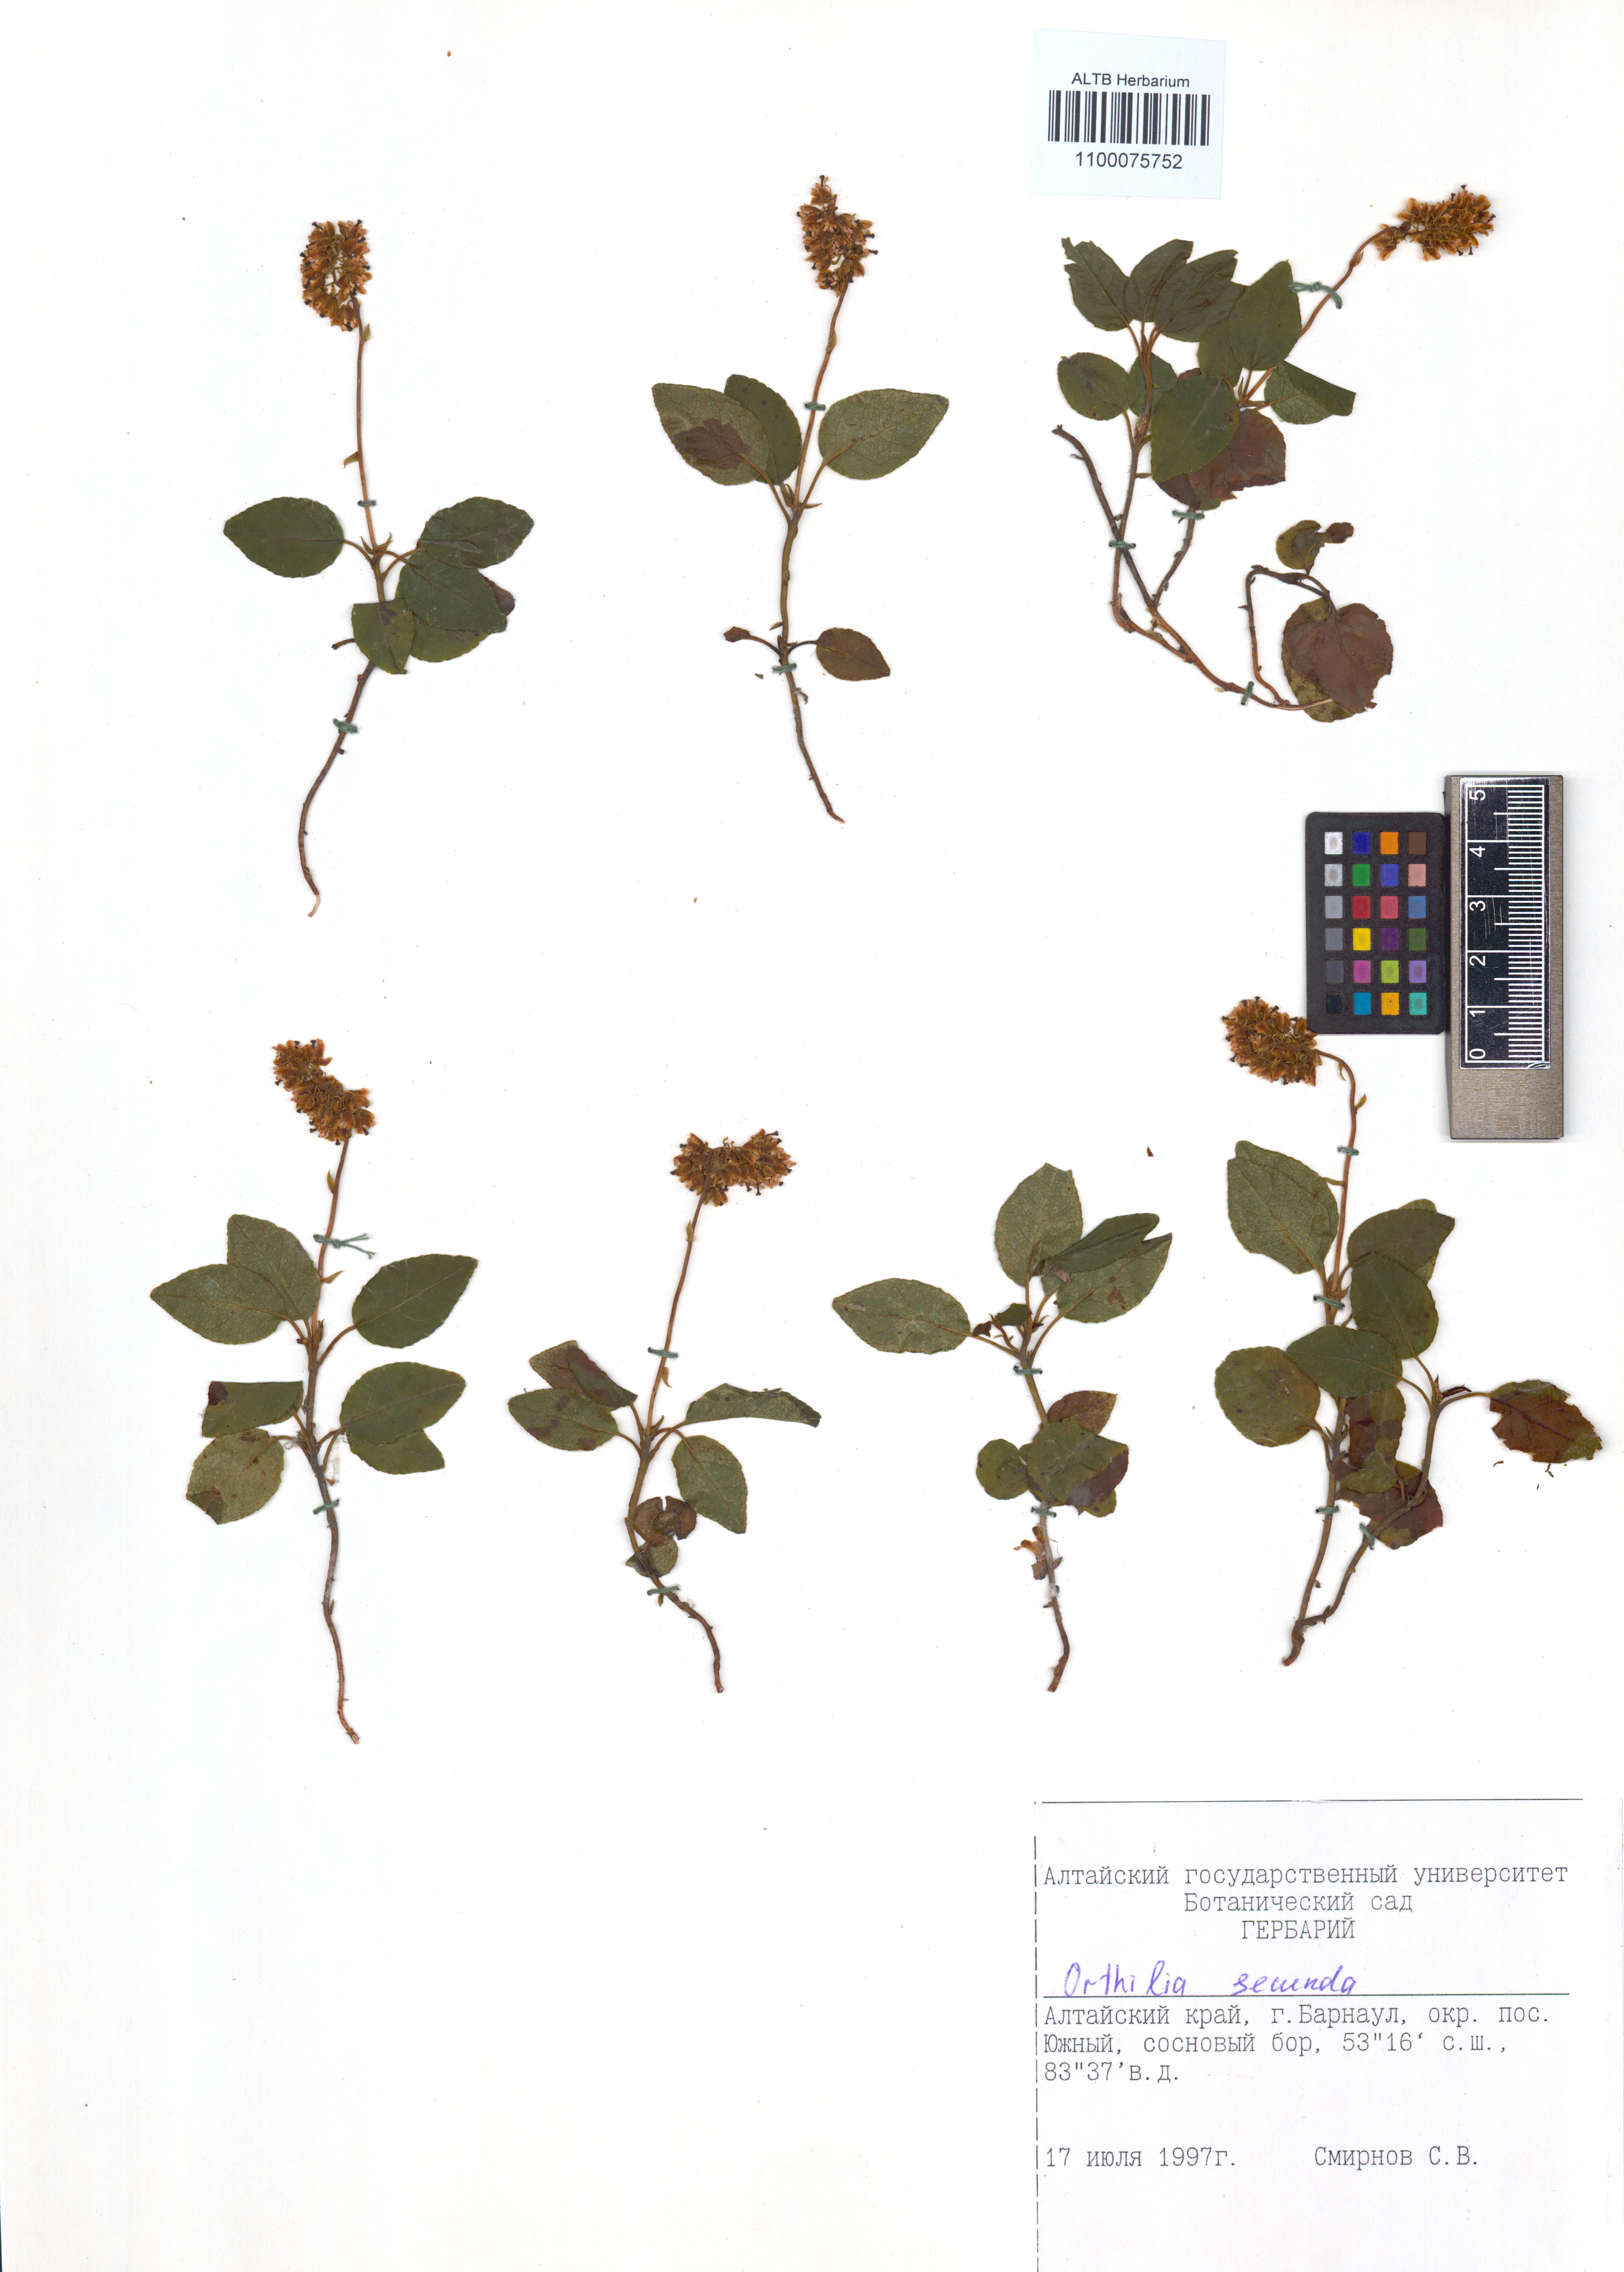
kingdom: Plantae
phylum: Tracheophyta
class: Magnoliopsida
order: Ericales
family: Ericaceae
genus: Orthilia
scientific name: Orthilia secunda
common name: One-sided orthilia
